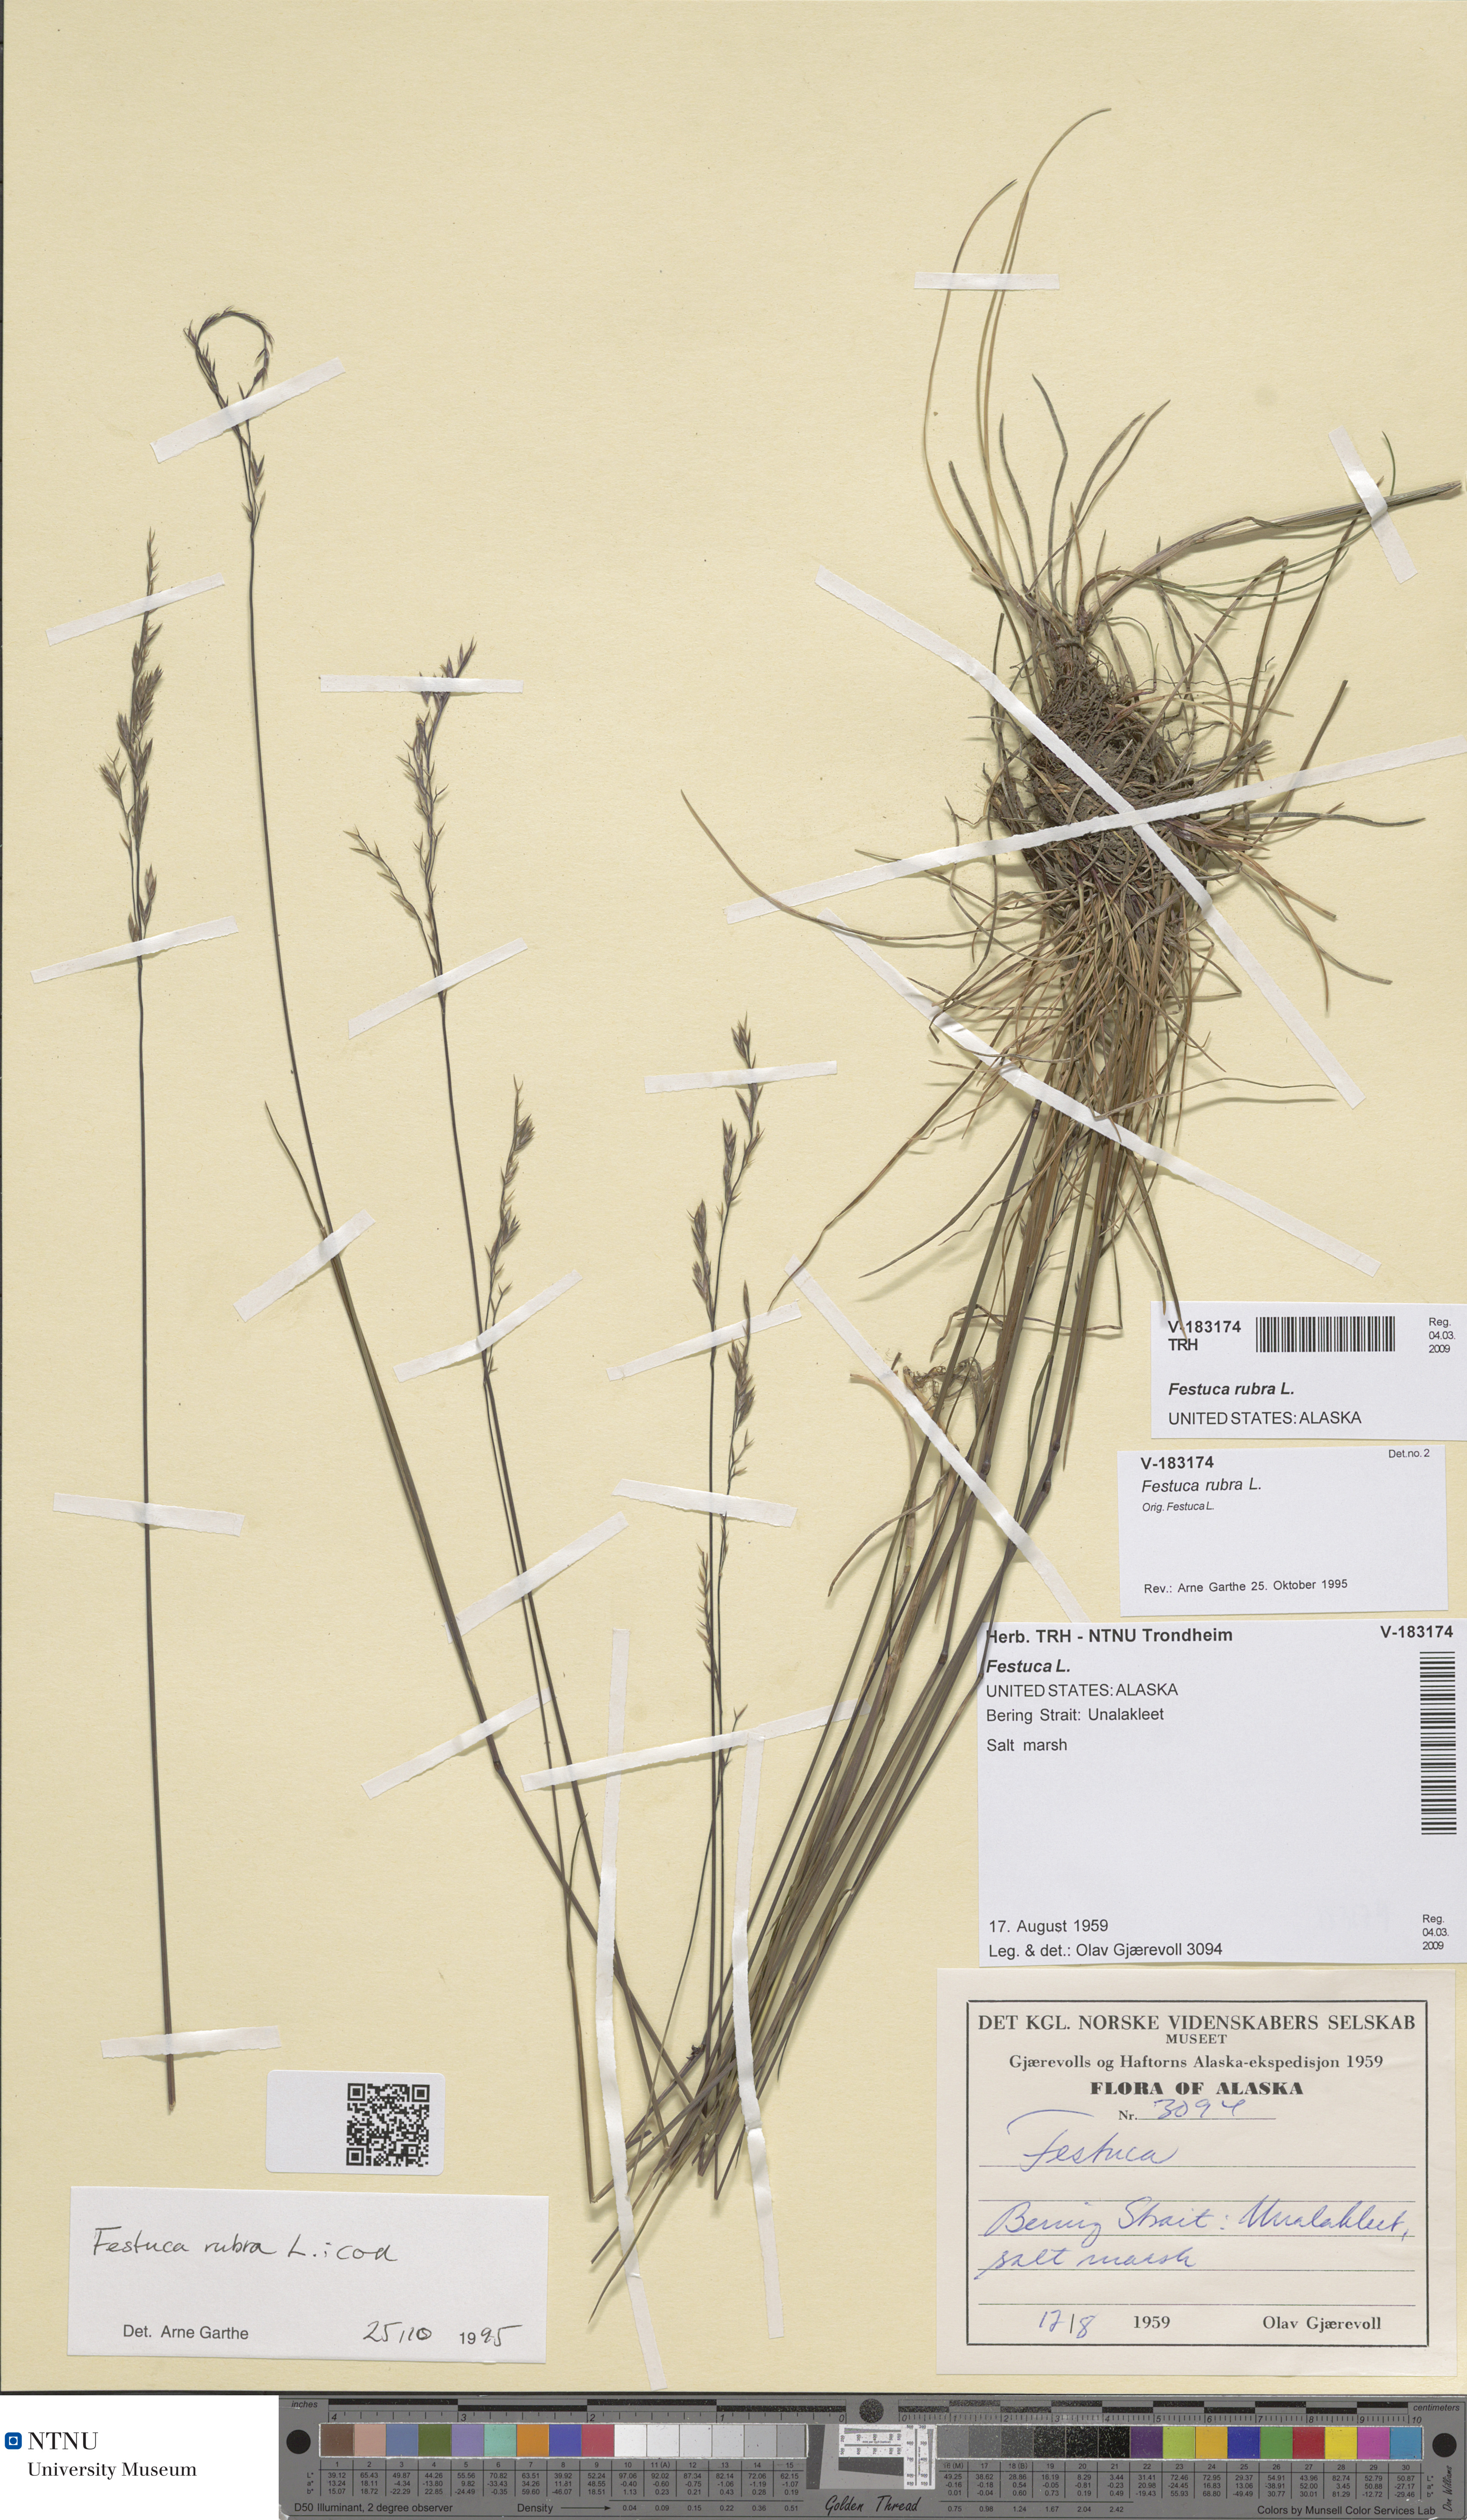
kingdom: Plantae
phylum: Tracheophyta
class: Liliopsida
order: Poales
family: Poaceae
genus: Festuca
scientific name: Festuca rubra
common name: Red fescue
